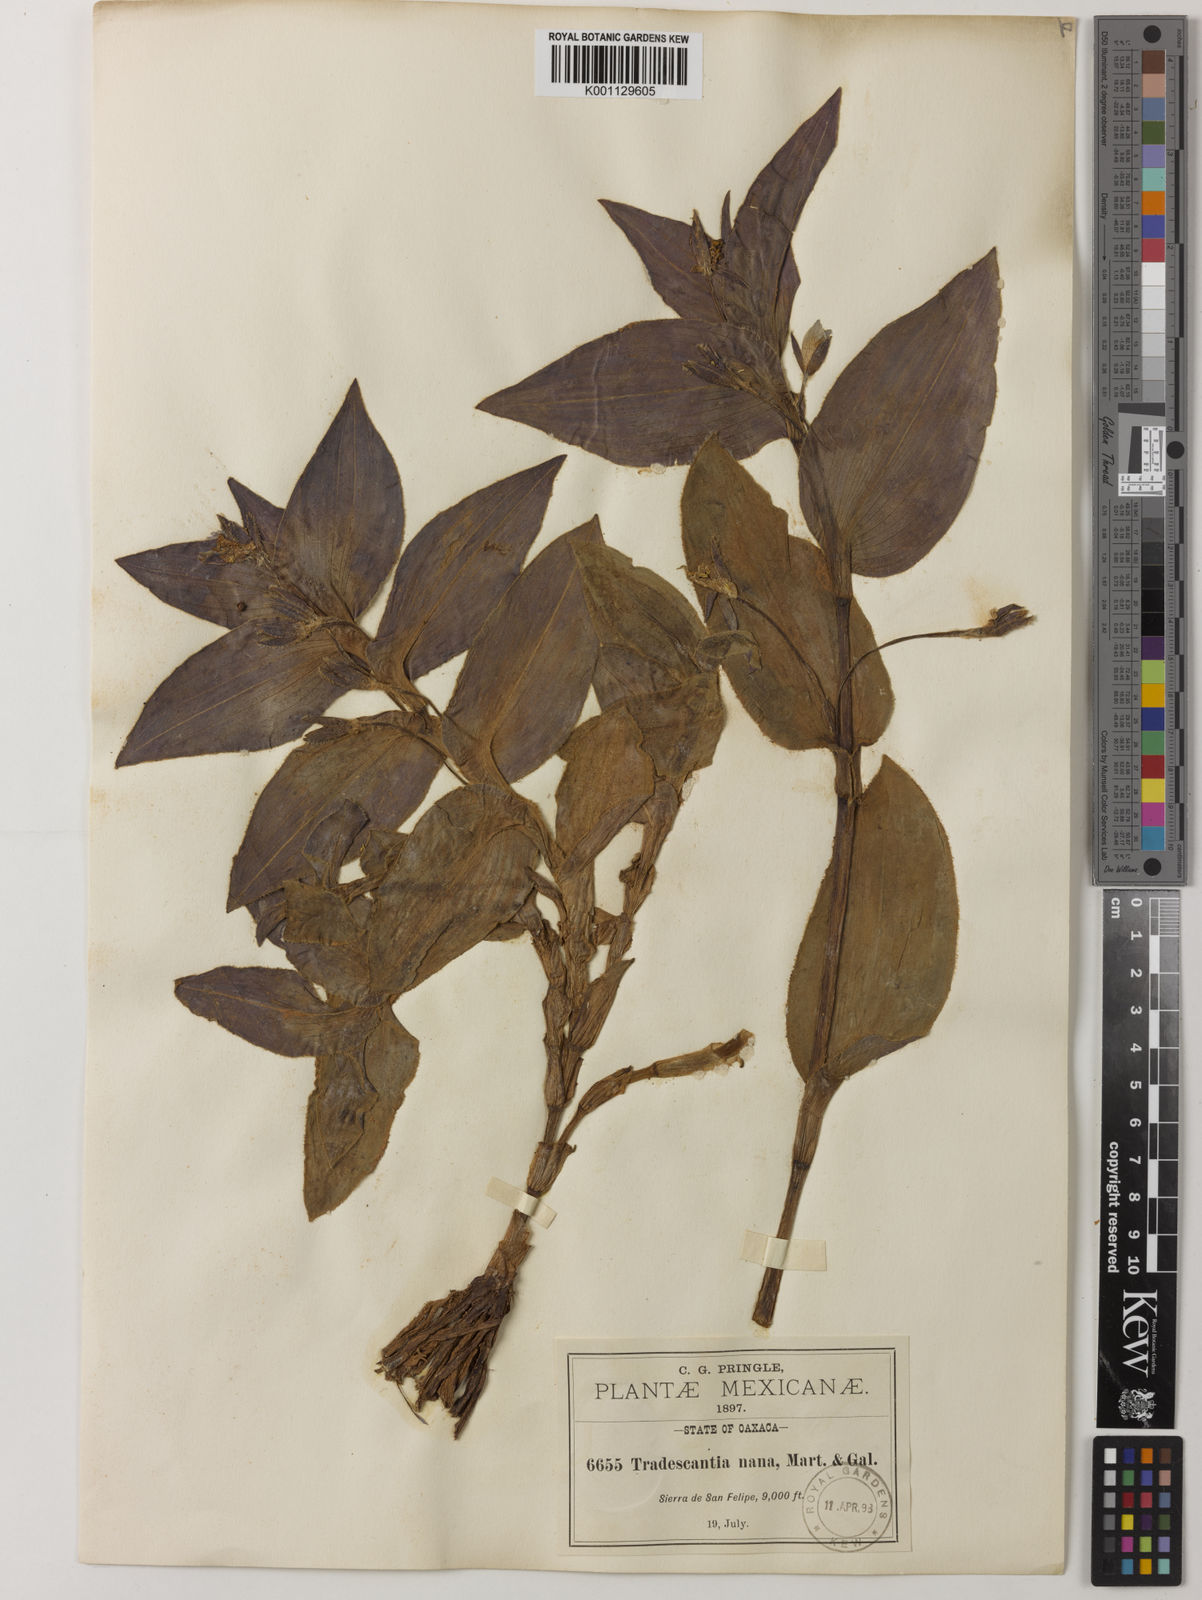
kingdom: Plantae
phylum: Tracheophyta
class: Liliopsida
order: Commelinales
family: Commelinaceae
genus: Matudanthus
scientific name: Matudanthus nanus
